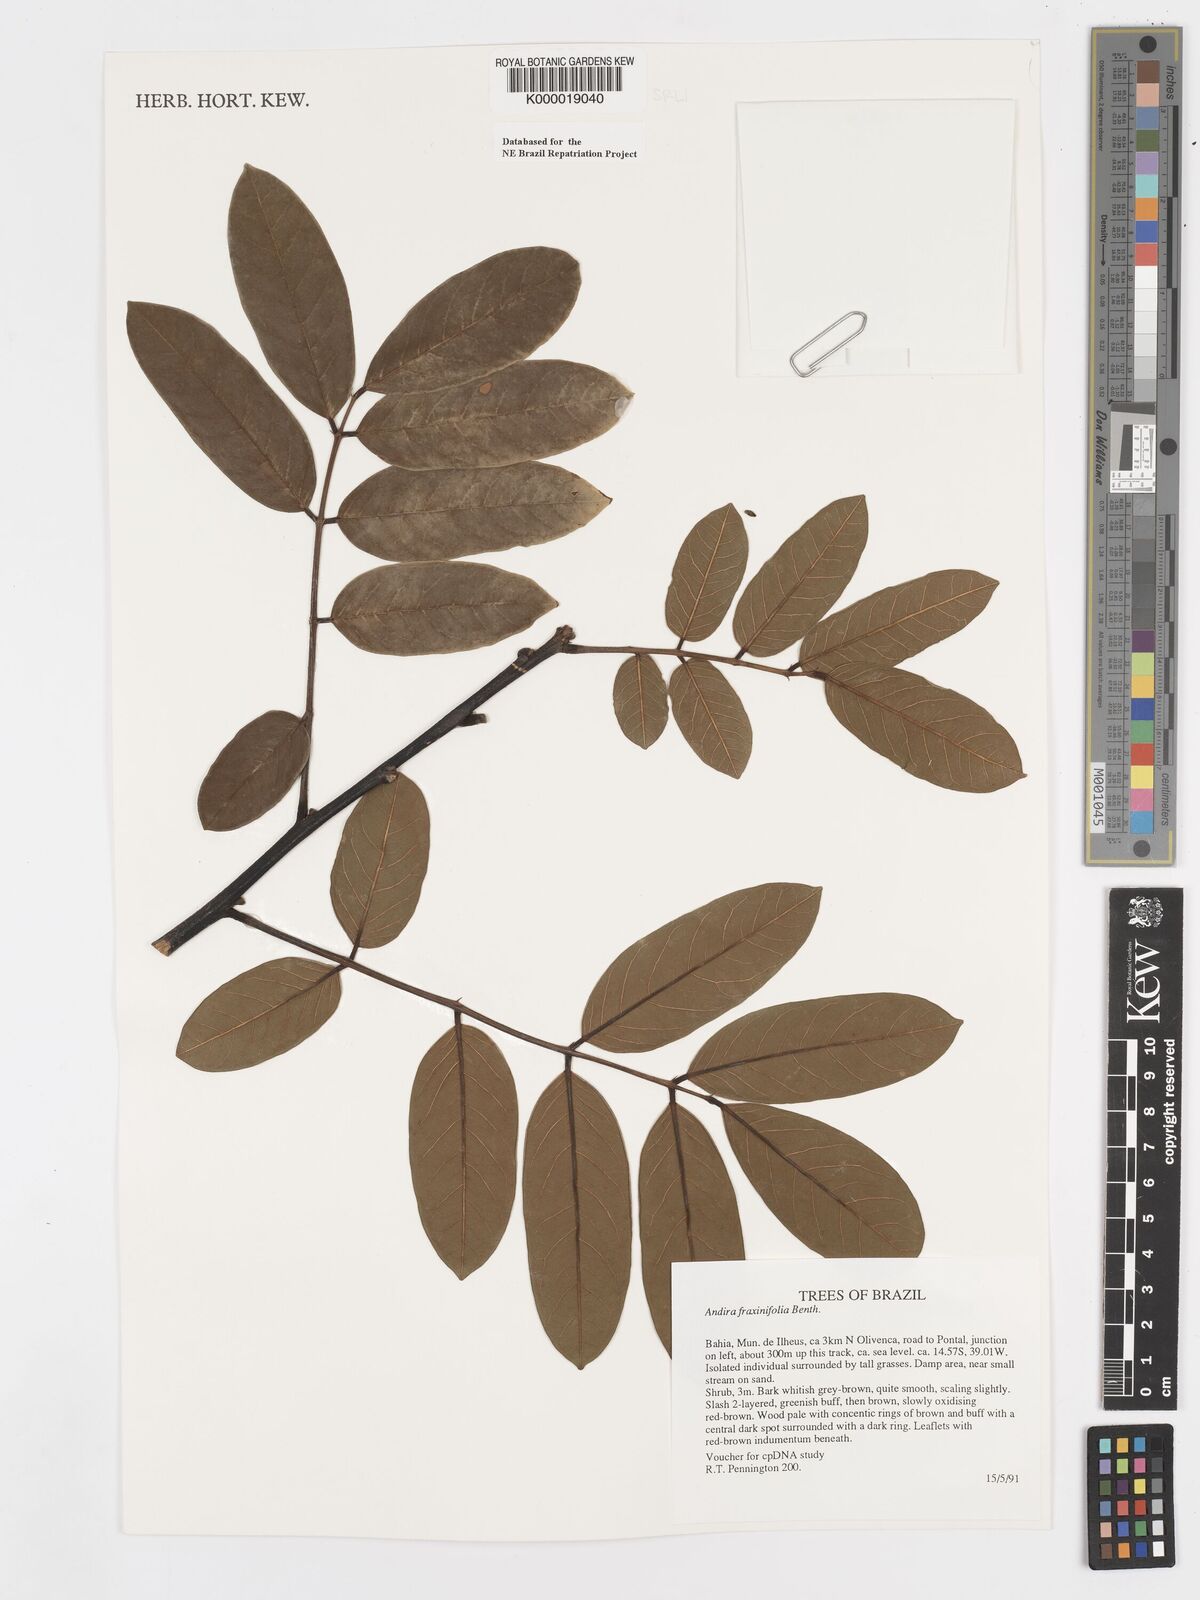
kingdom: Plantae
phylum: Tracheophyta
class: Magnoliopsida
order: Fabales
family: Fabaceae
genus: Andira
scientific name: Andira fraxinifolia
